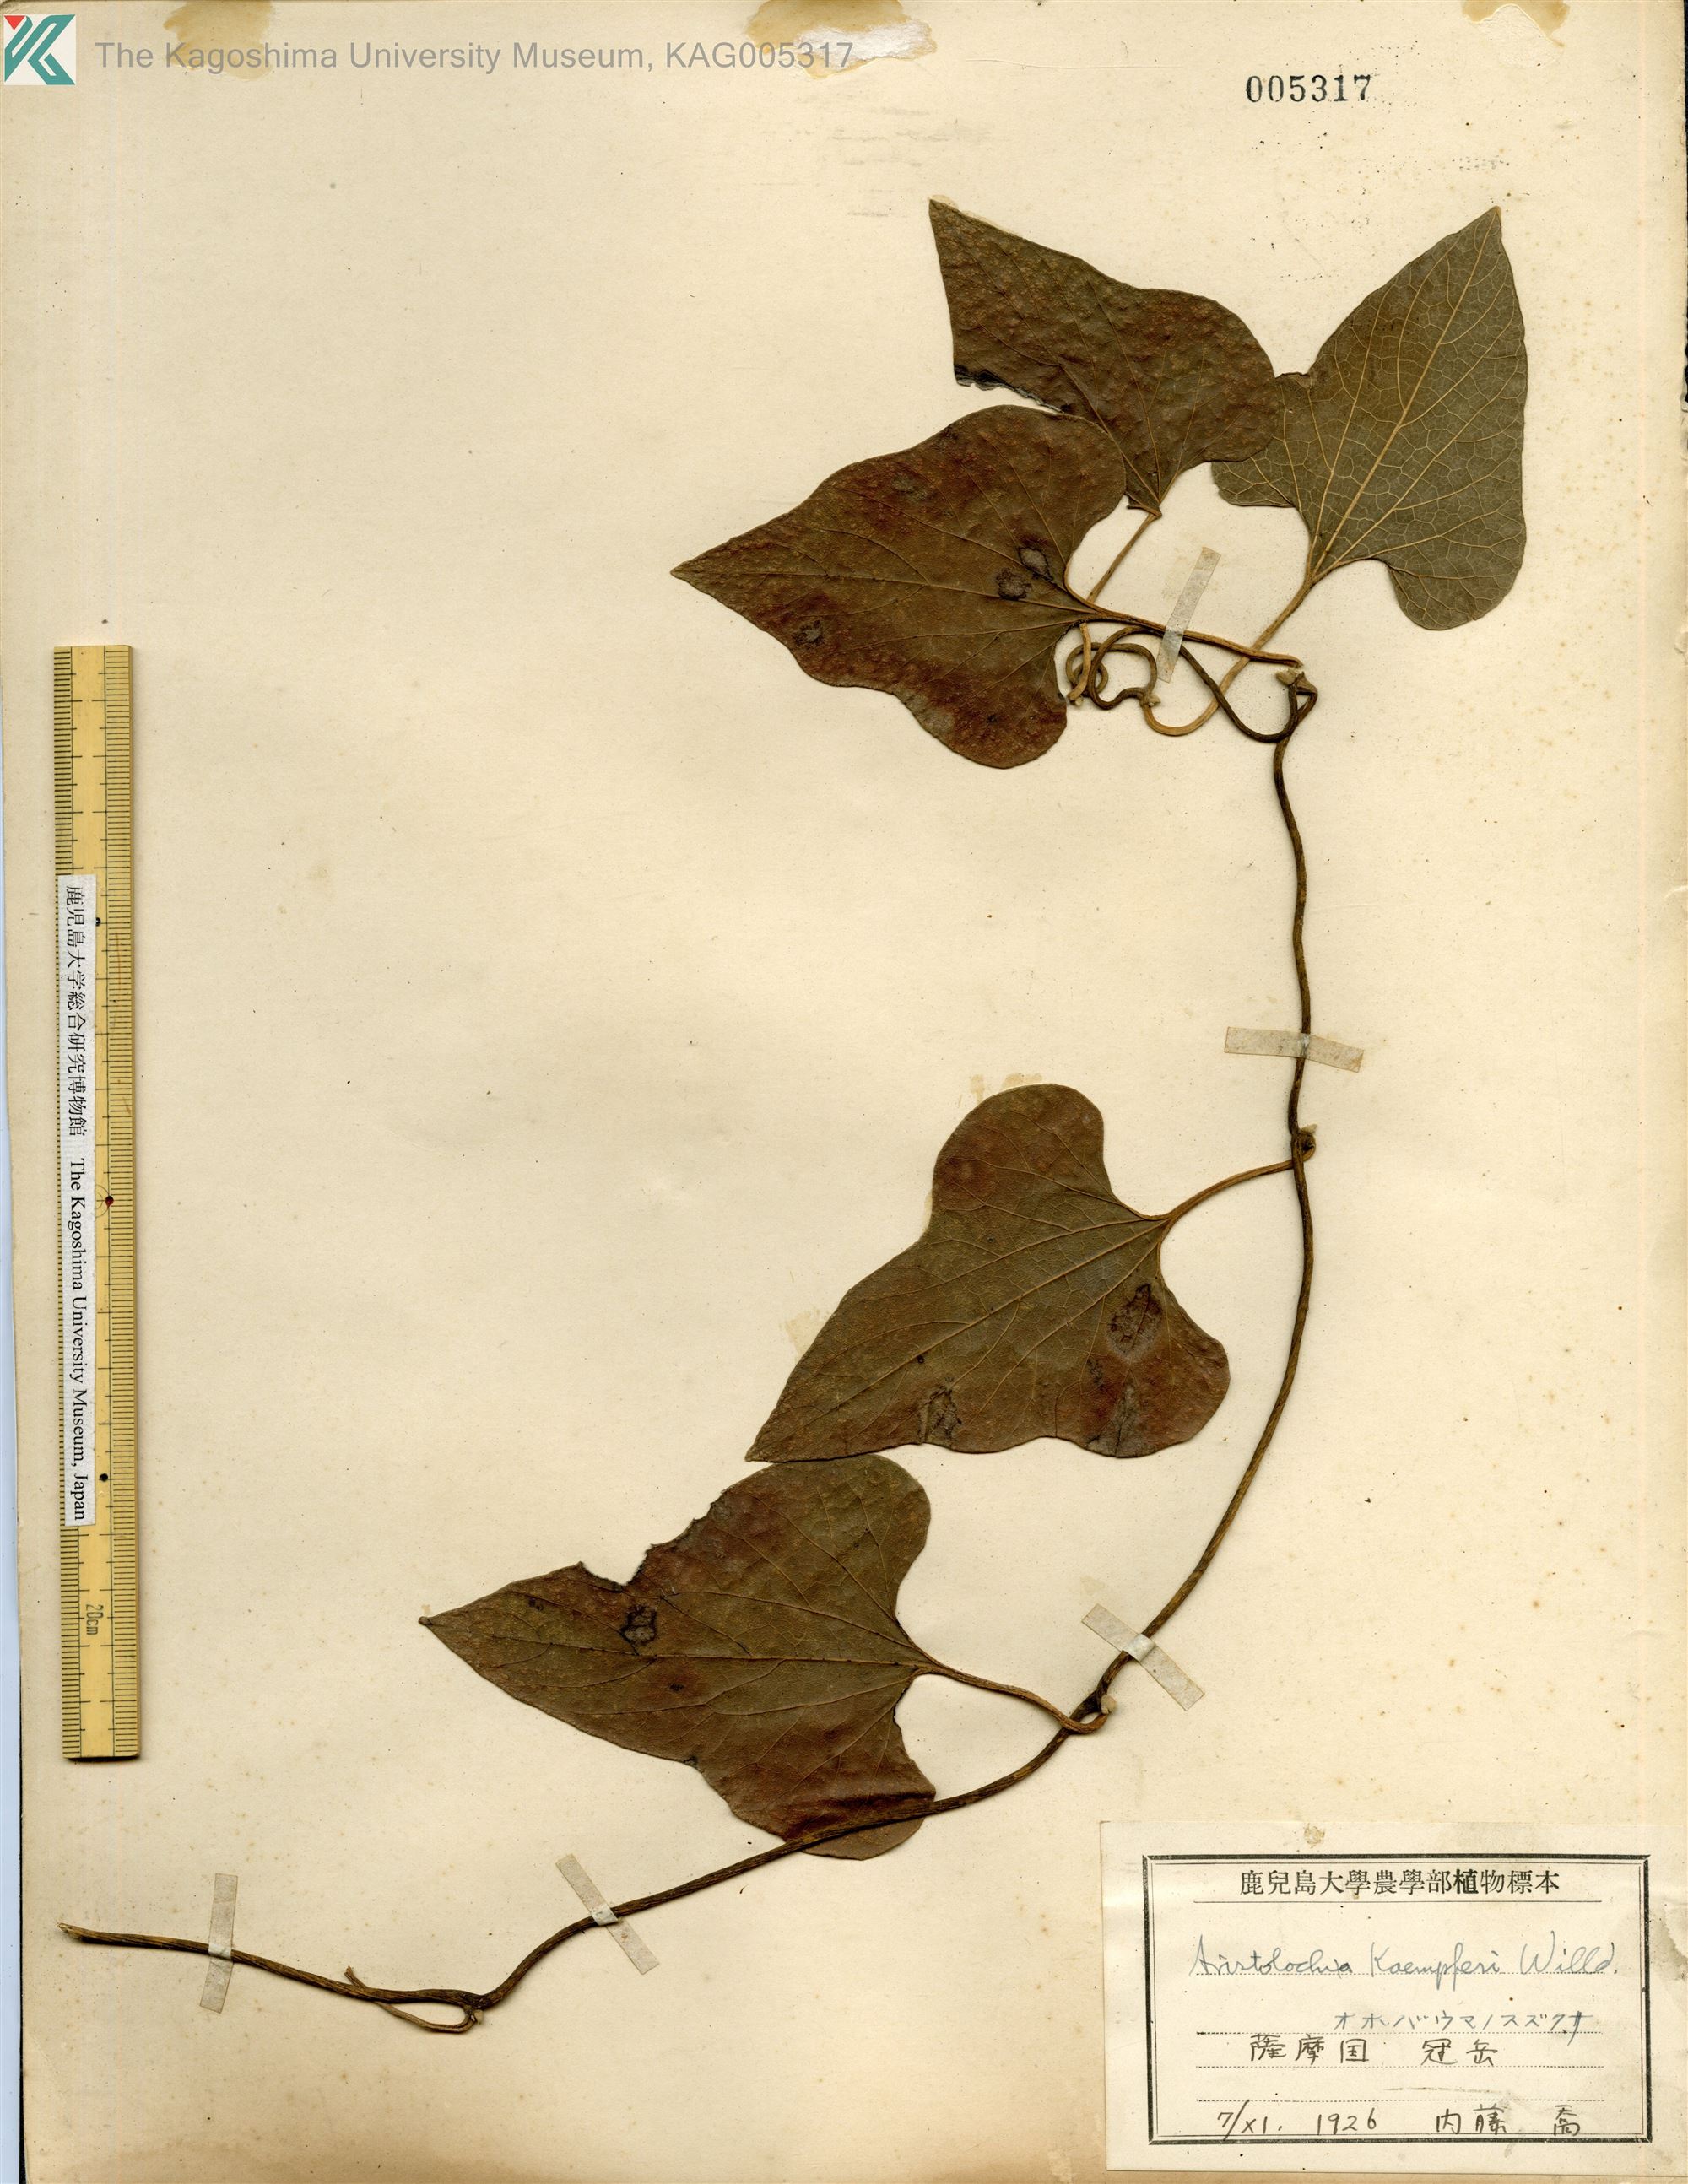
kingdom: Plantae
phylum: Tracheophyta
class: Magnoliopsida
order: Piperales
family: Aristolochiaceae
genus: Isotrema
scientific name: Isotrema kaempferi
